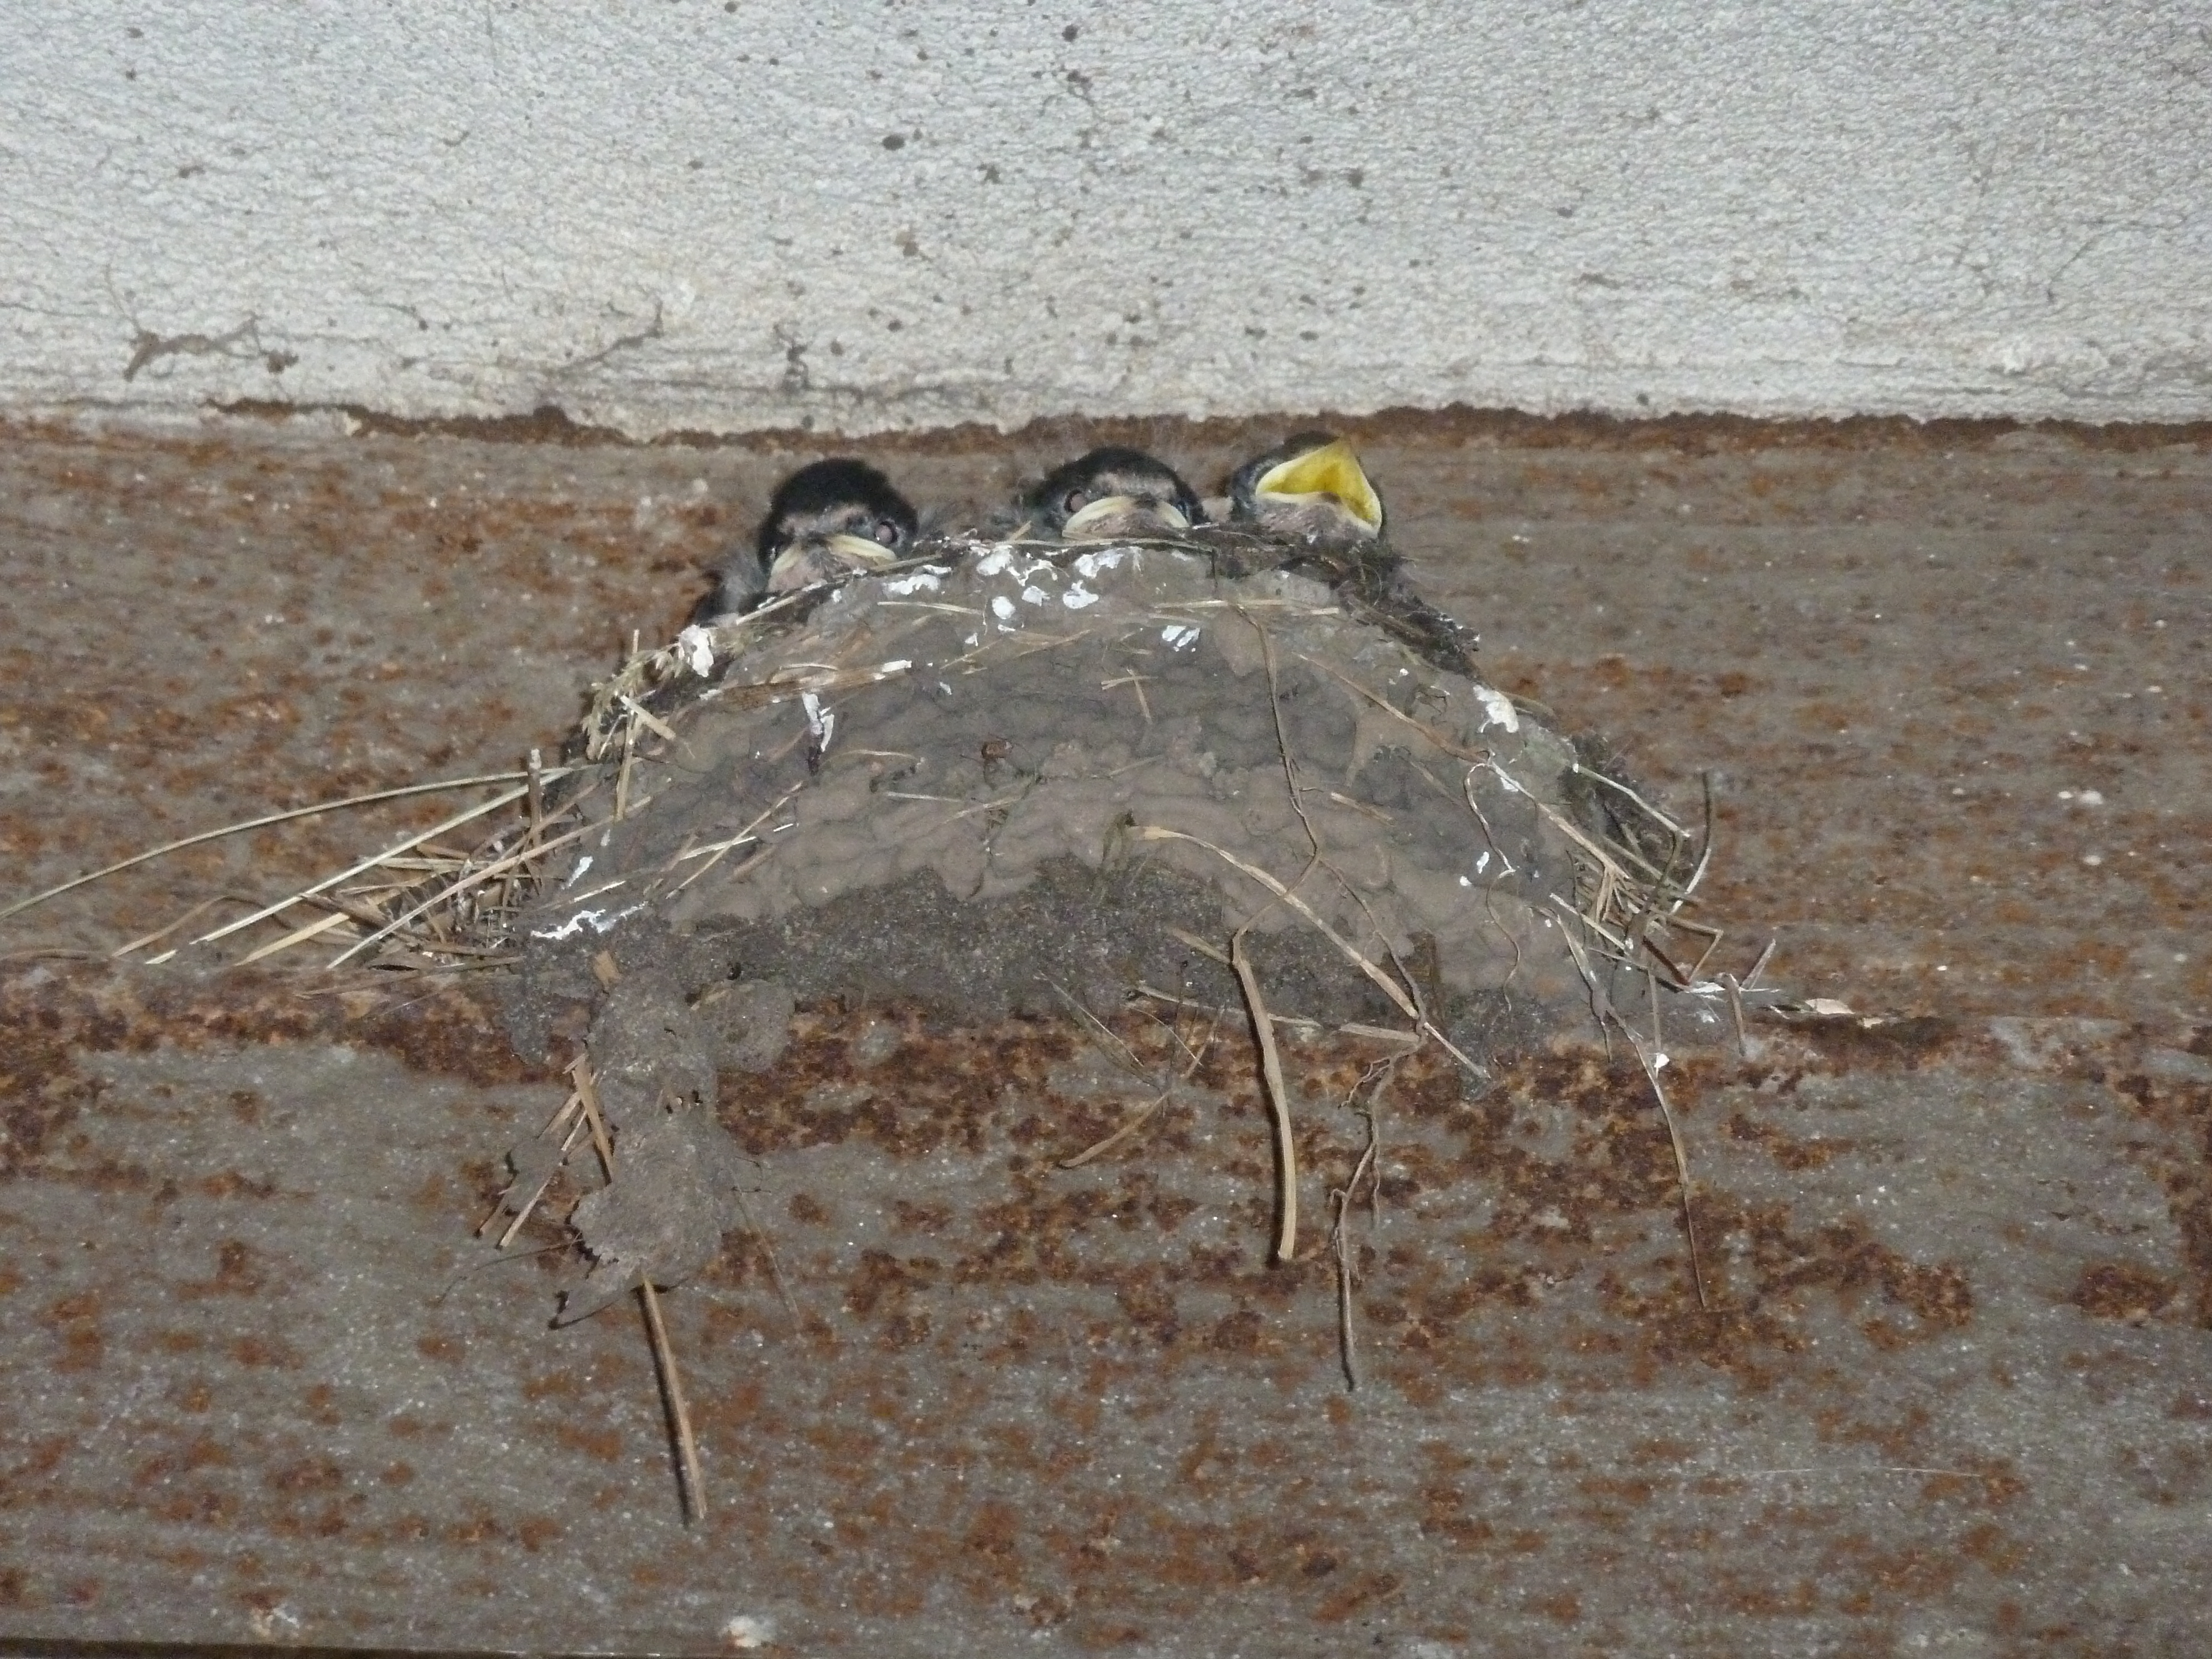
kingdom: Animalia
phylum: Chordata
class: Aves
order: Passeriformes
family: Hirundinidae
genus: Hirundo
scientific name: Hirundo rustica
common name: Barn swallow
